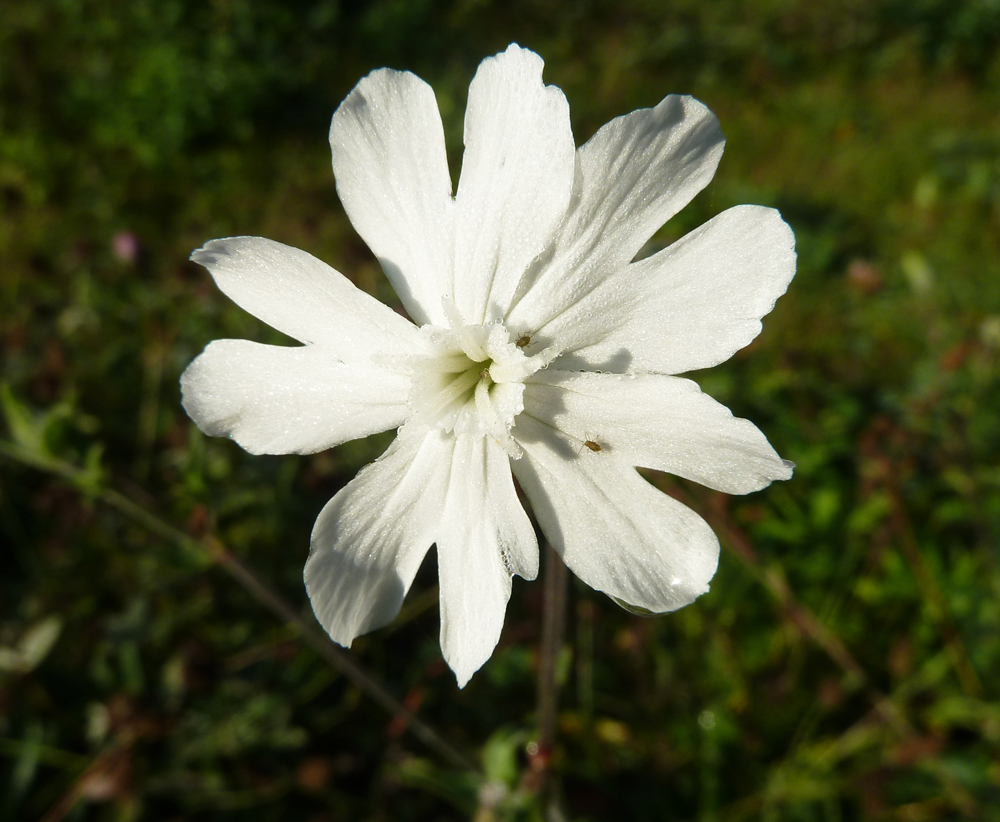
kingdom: Plantae
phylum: Tracheophyta
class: Magnoliopsida
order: Caryophyllales
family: Caryophyllaceae
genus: Silene
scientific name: Silene latifolia
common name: White campion
